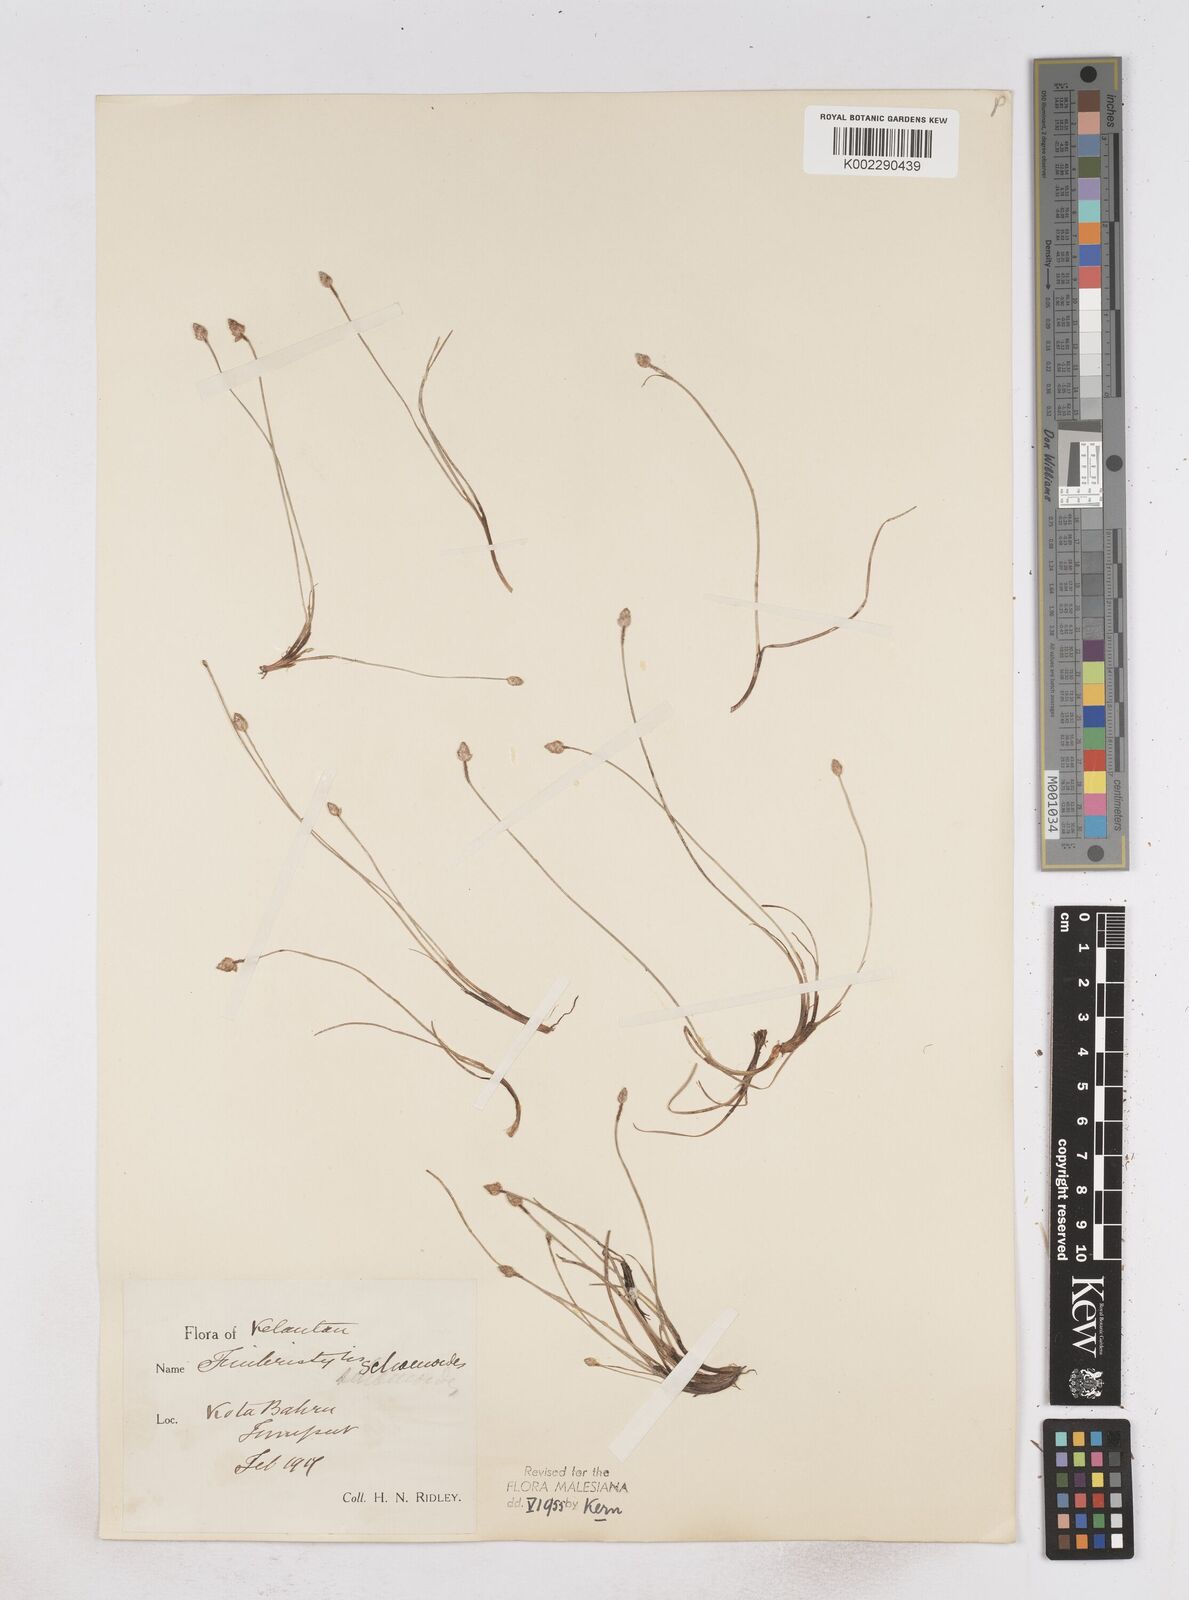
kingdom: Plantae
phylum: Tracheophyta
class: Liliopsida
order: Poales
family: Cyperaceae
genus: Fimbristylis
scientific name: Fimbristylis schoenoides
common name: Ditch fimbry
